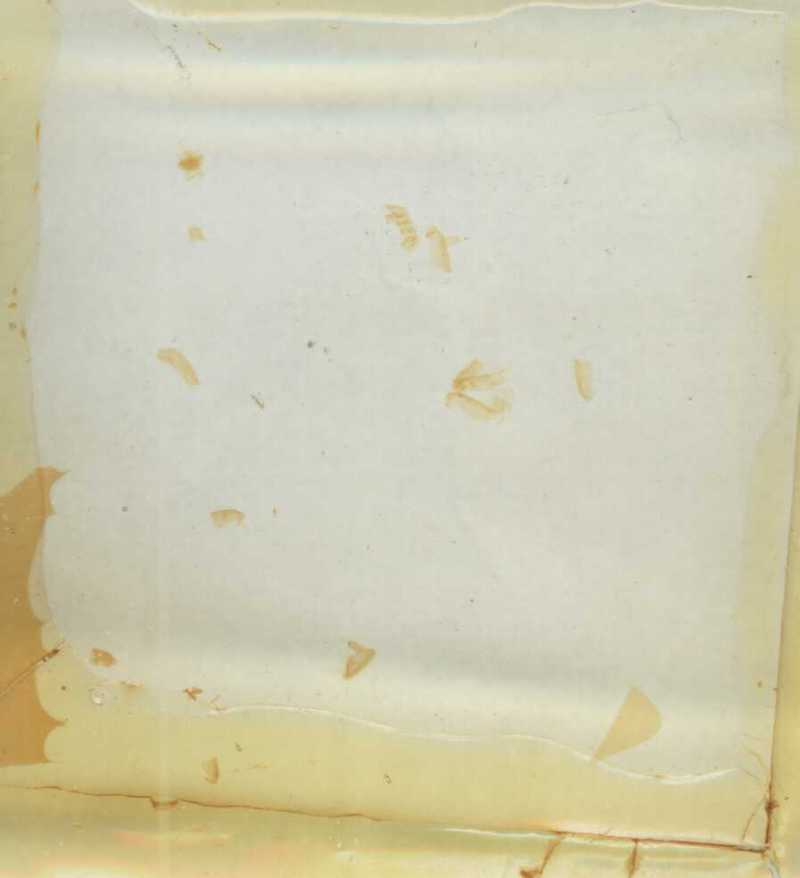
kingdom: Animalia
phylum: Arthropoda
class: Diplopoda
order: Glomerida
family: Glomeridae
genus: Trachysphaera
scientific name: Trachysphaera schmidtii
